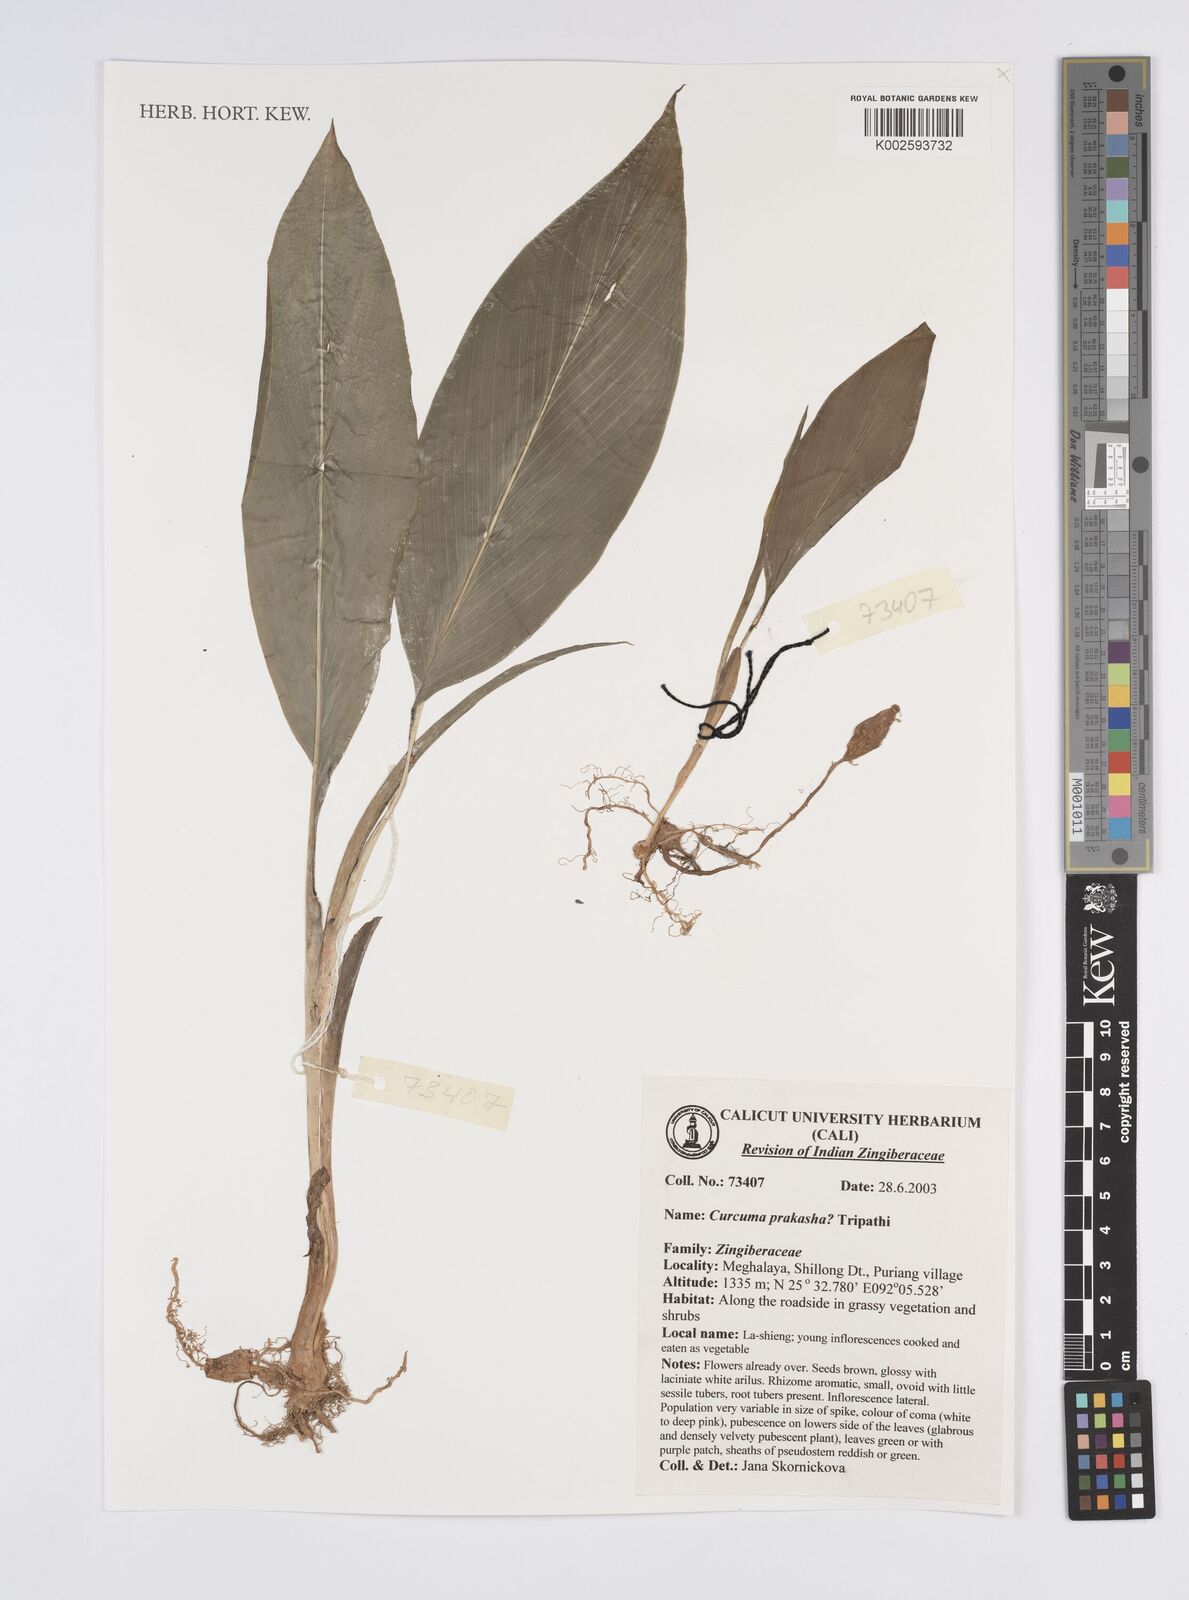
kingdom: Plantae
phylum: Tracheophyta
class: Liliopsida
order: Zingiberales
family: Zingiberaceae
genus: Curcuma
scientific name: Curcuma prakasha
